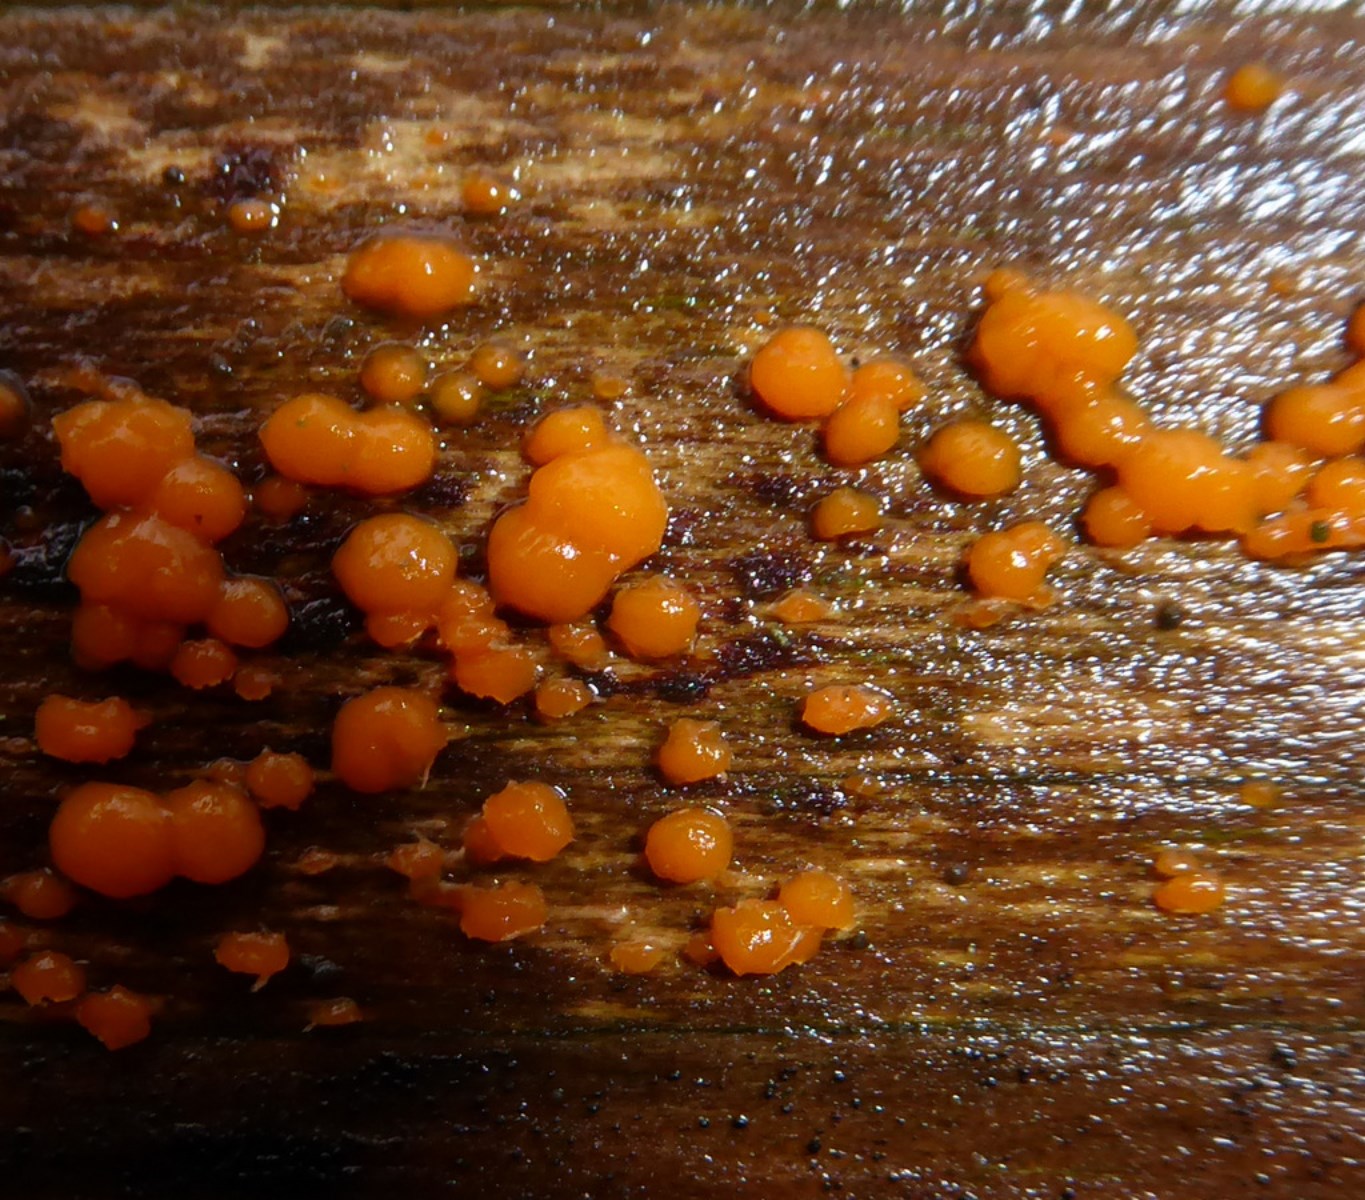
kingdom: Fungi
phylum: Basidiomycota
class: Dacrymycetes
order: Dacrymycetales
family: Dacrymycetaceae
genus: Dacrymyces
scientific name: Dacrymyces stillatus
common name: almindelig tåresvamp
